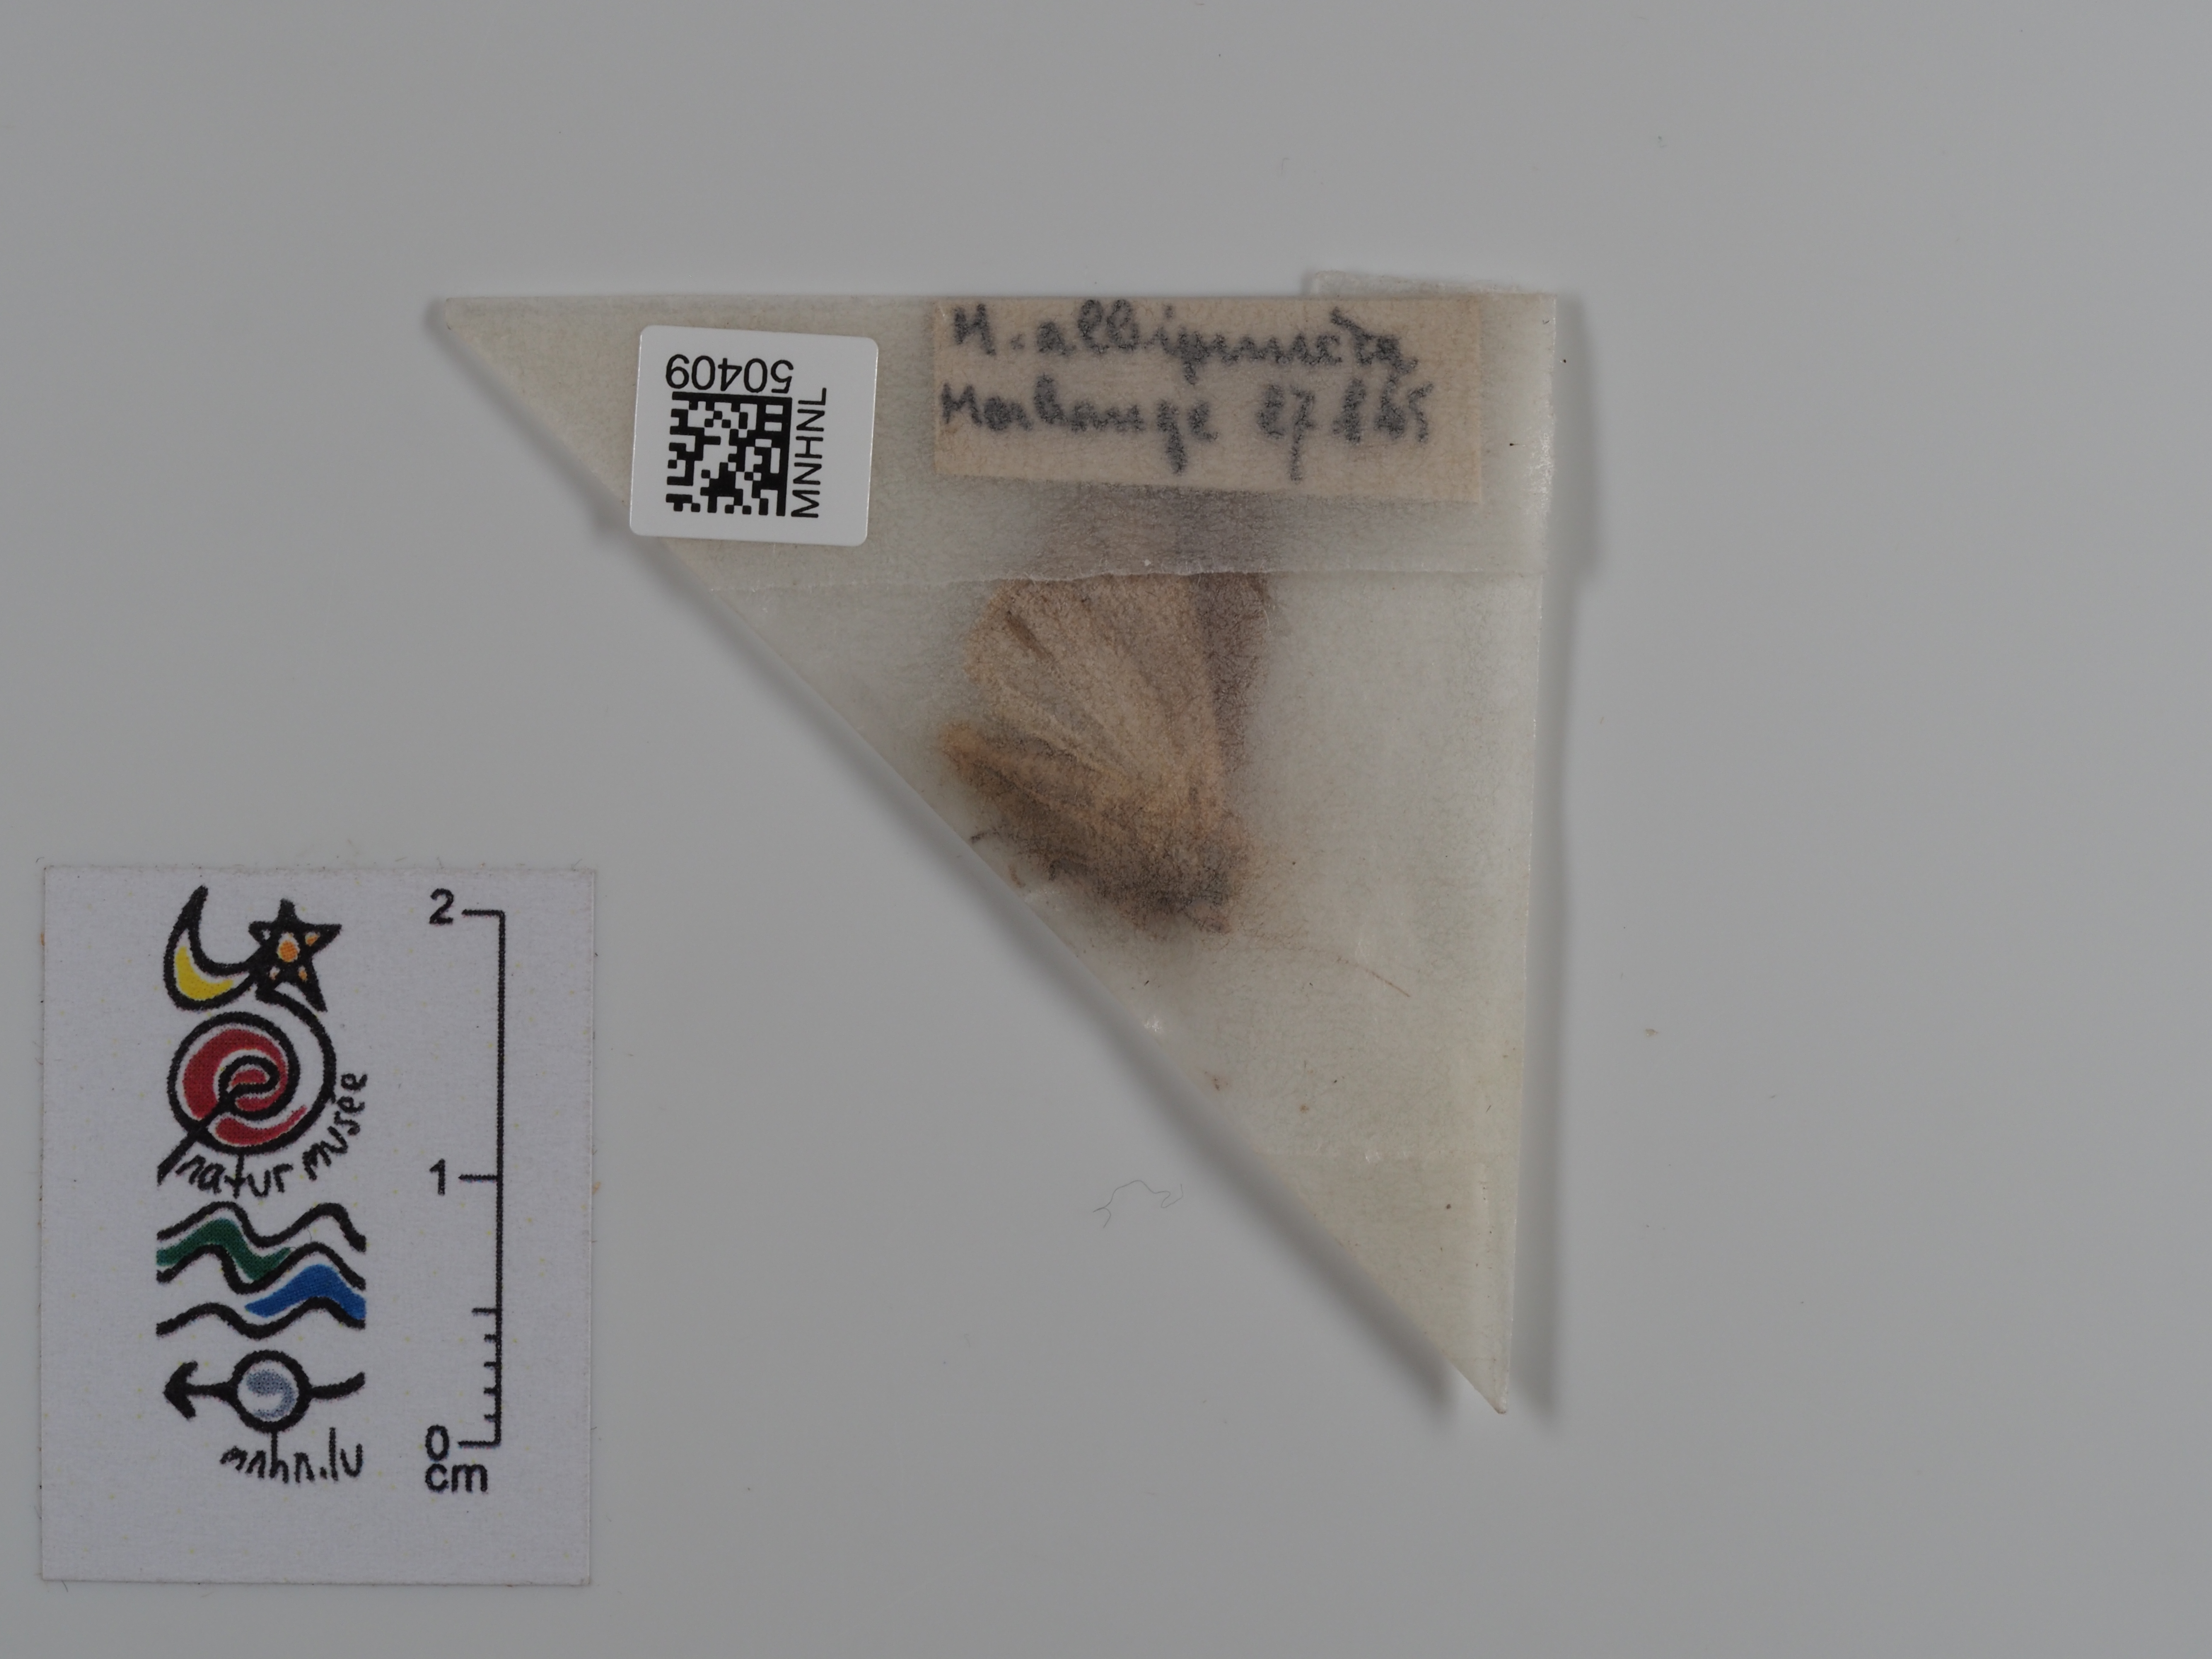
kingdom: Animalia
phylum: Arthropoda
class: Insecta
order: Lepidoptera
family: Noctuidae
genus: Mythimna
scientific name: Mythimna albipuncta
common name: White-point
